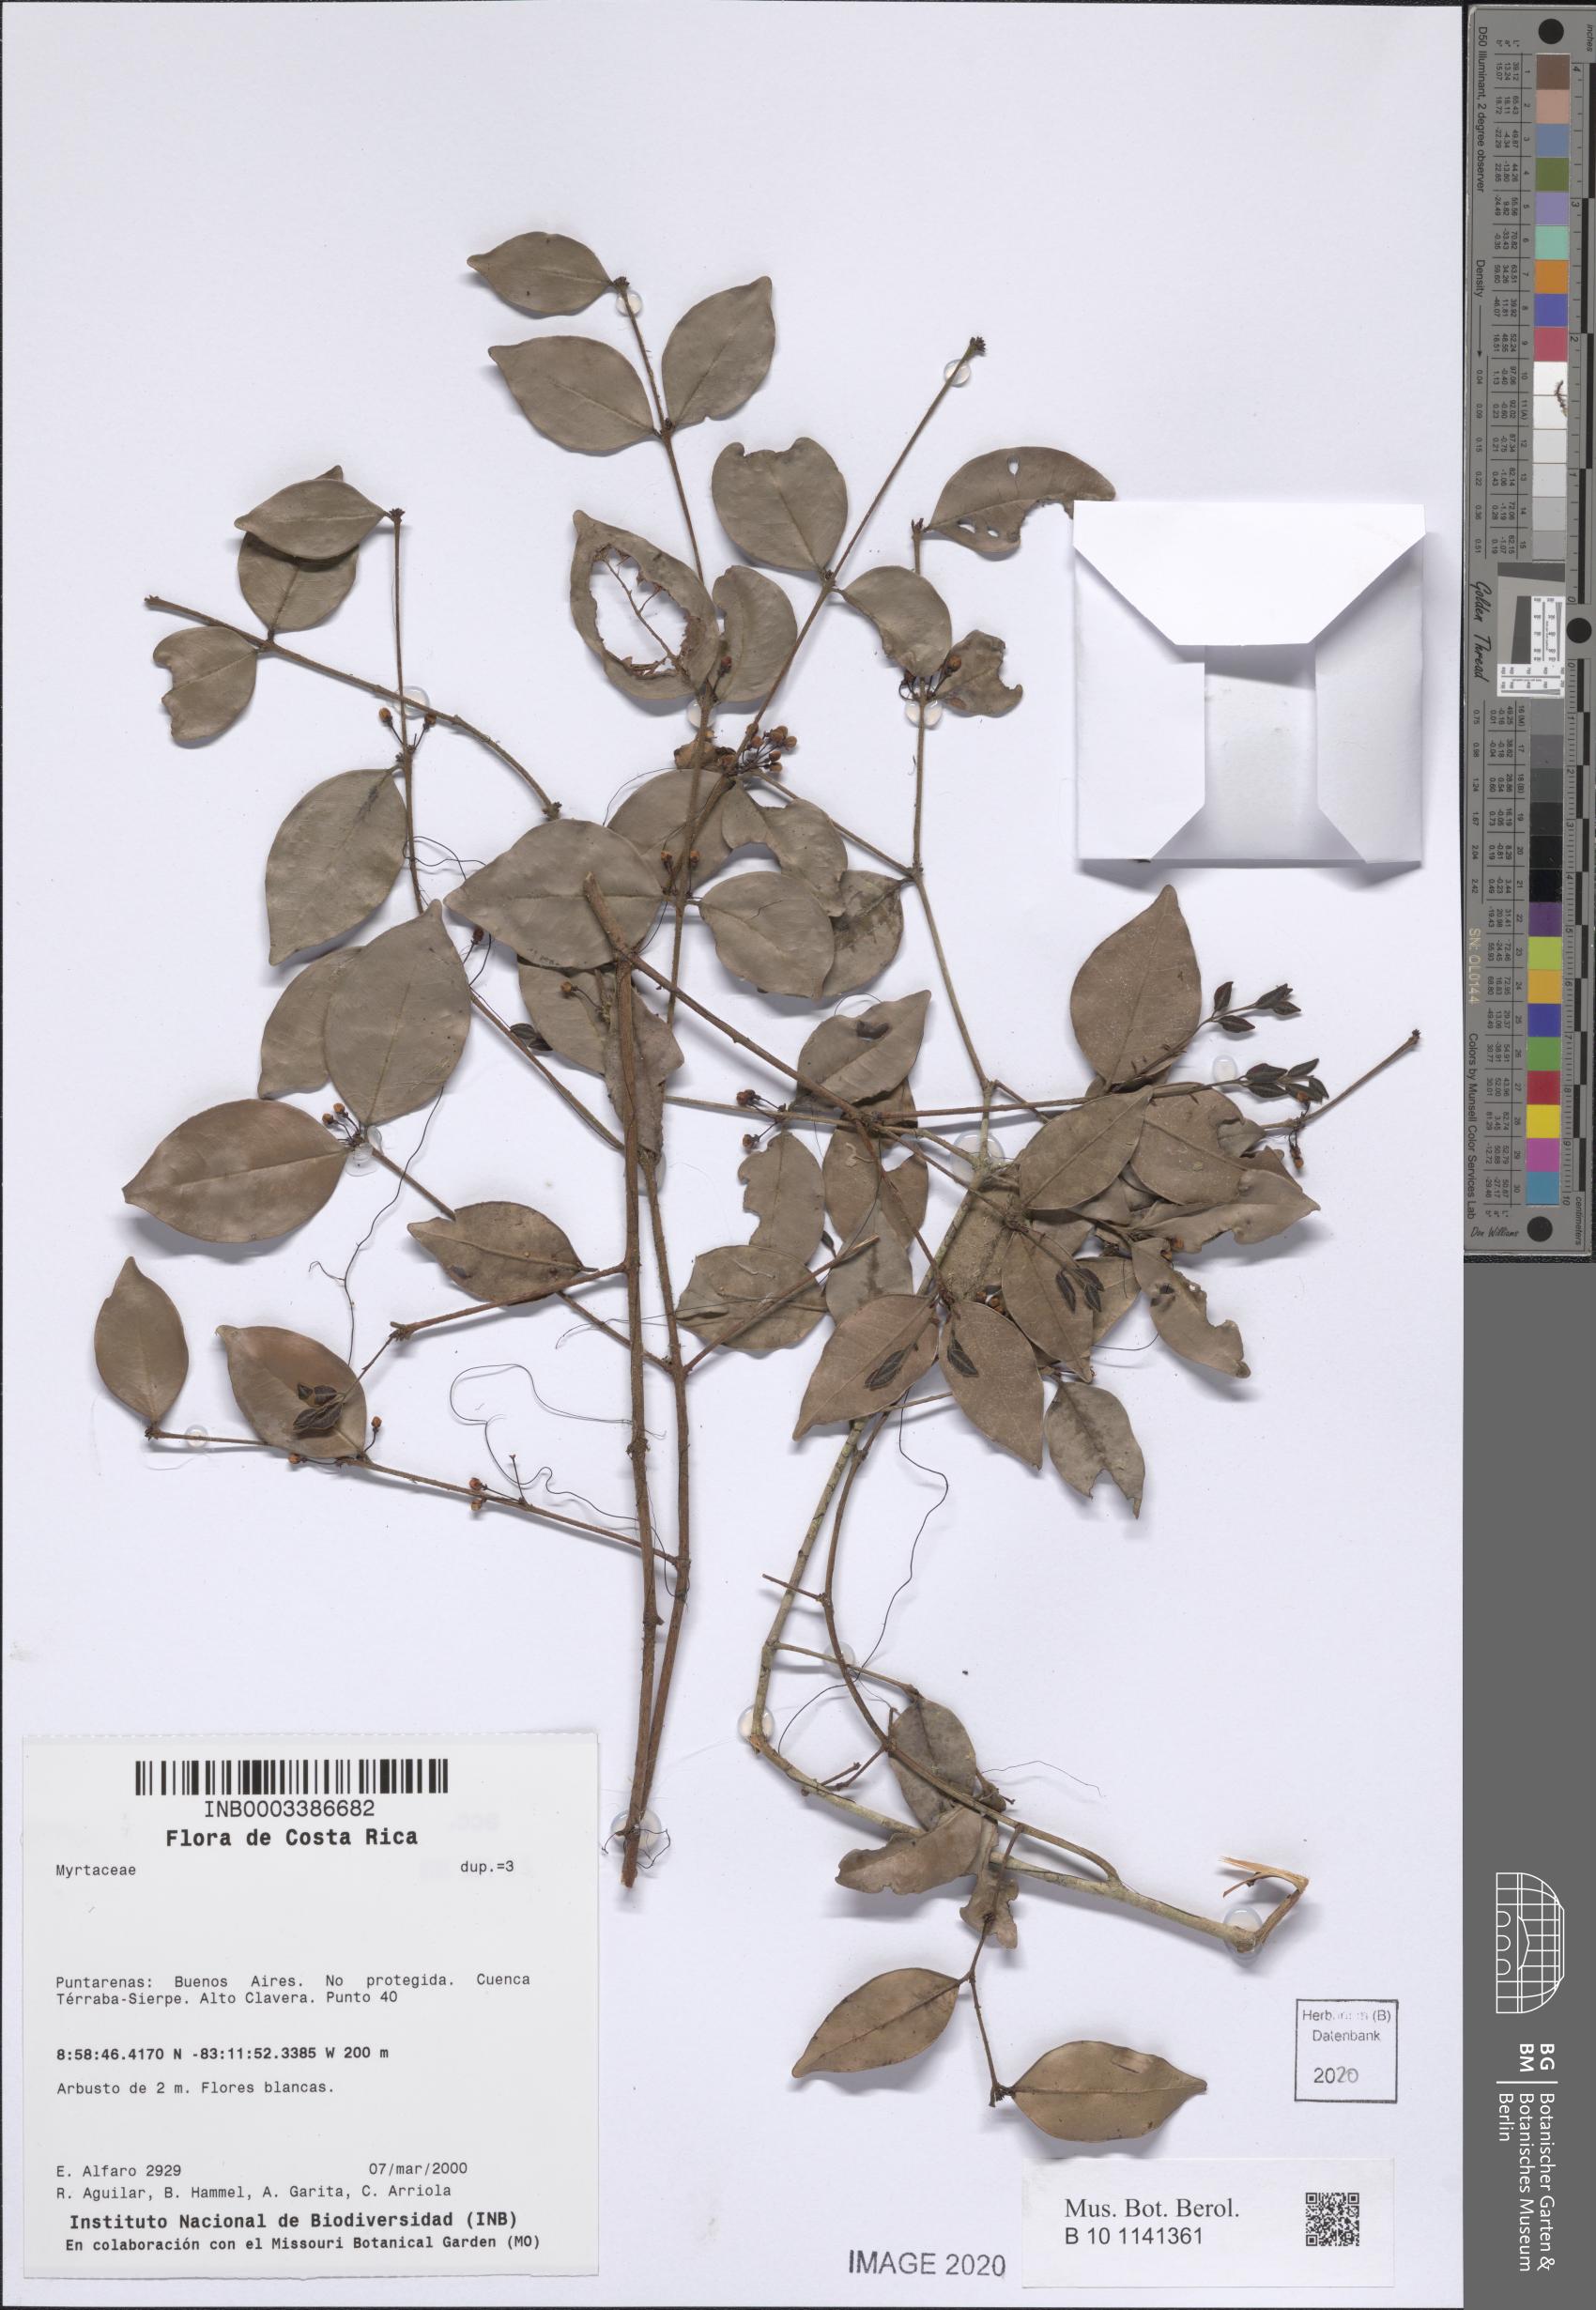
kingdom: Plantae
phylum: Tracheophyta
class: Magnoliopsida
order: Myrtales
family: Myrtaceae
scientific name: Myrtaceae
